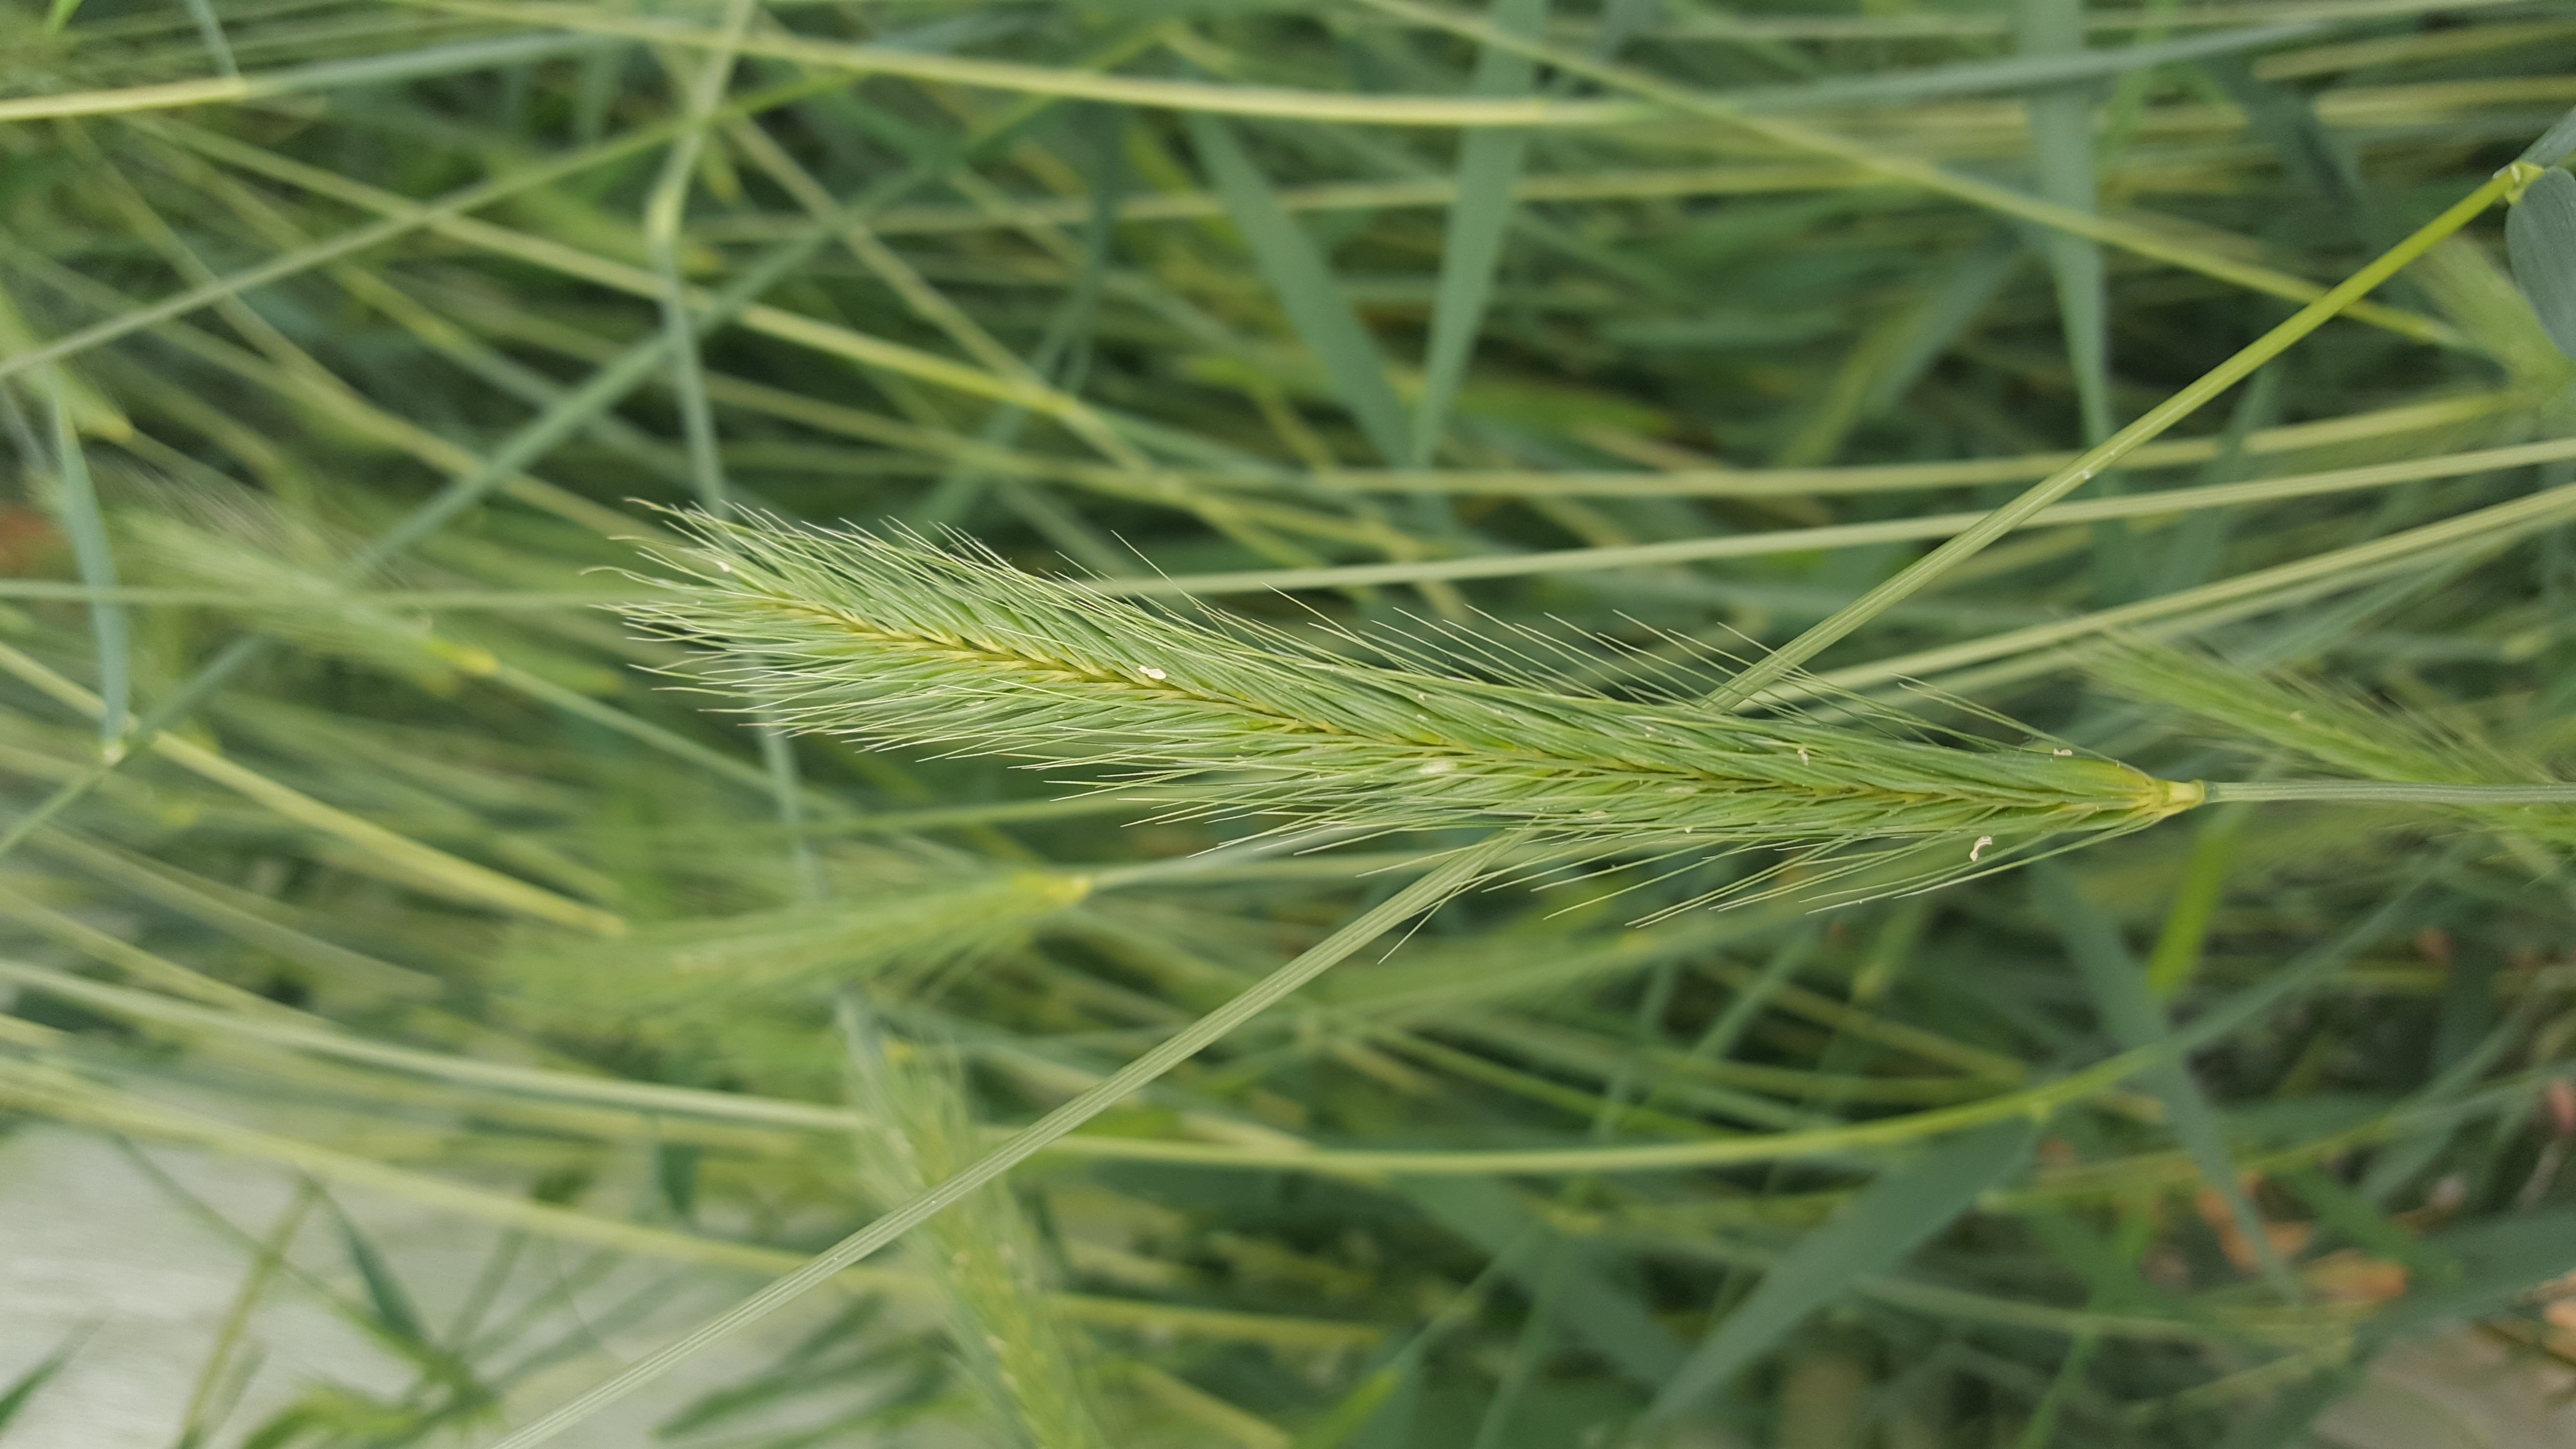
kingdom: Plantae
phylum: Tracheophyta
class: Liliopsida
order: Poales
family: Poaceae
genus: Hordeum
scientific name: Hordeum brachyantherum
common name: Meadow barley
